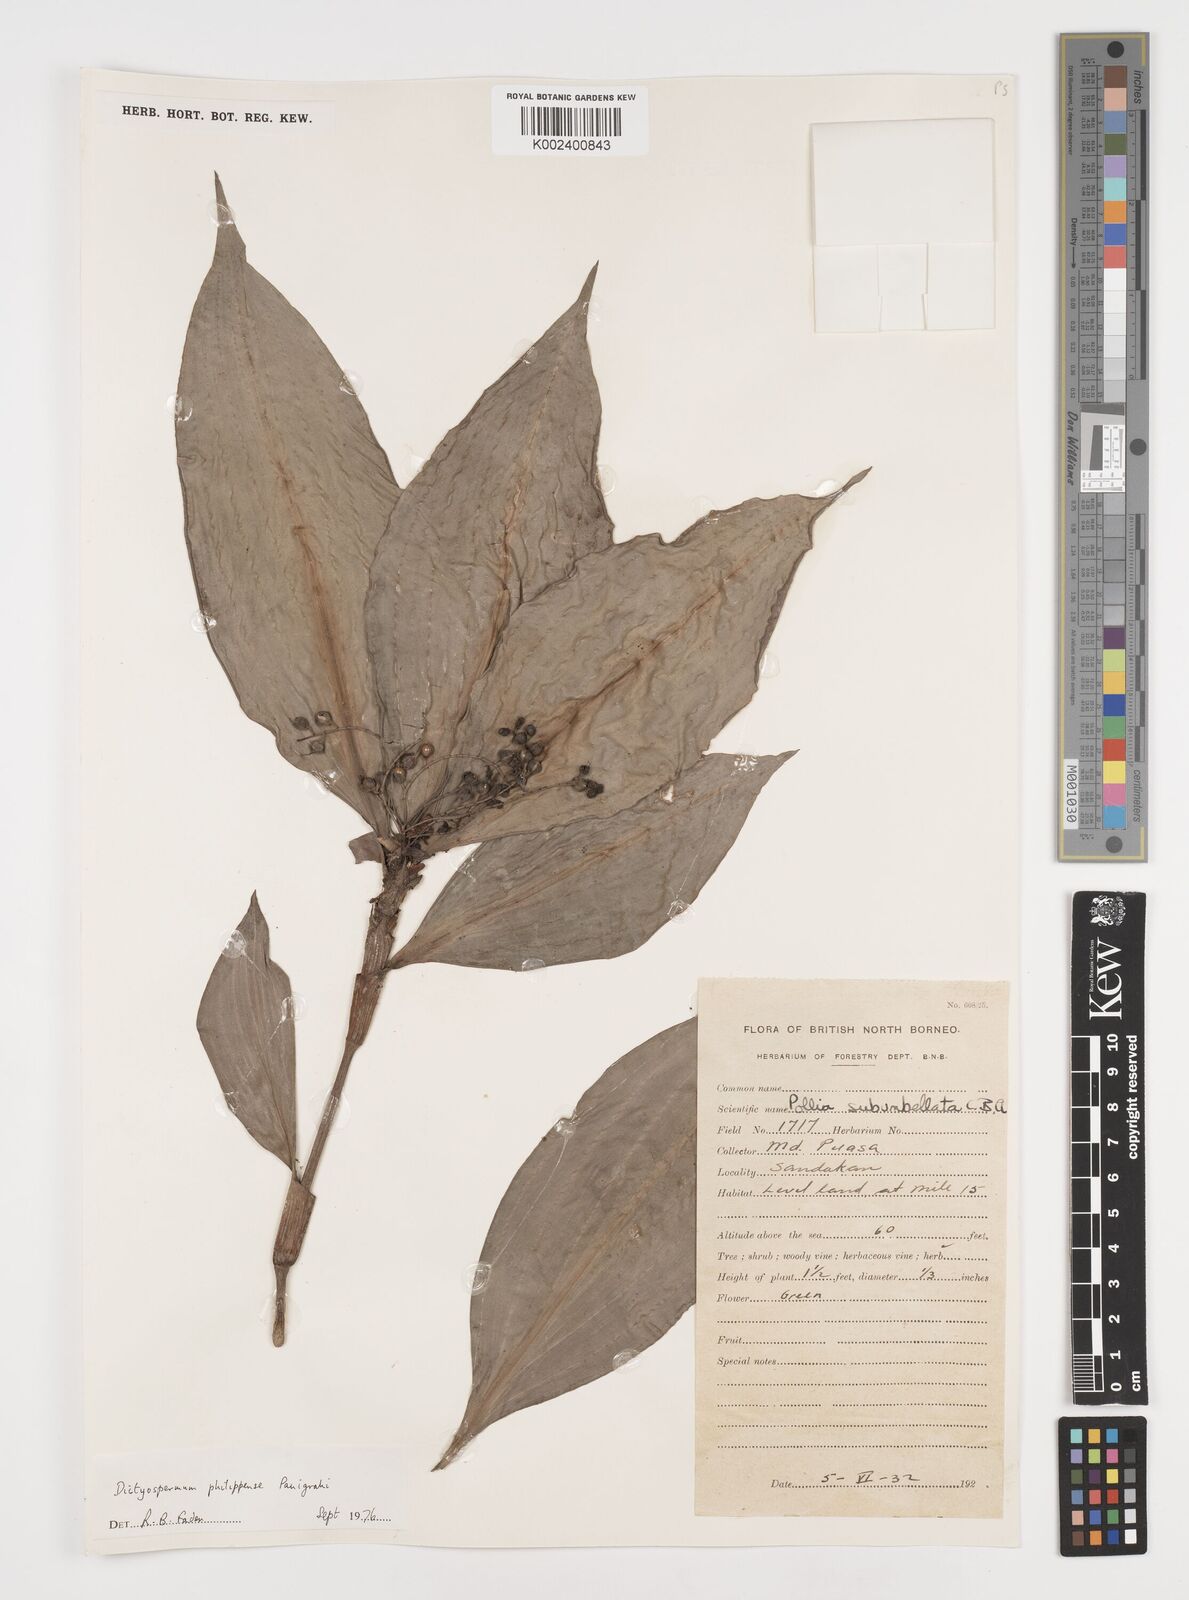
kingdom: Plantae
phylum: Tracheophyta
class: Liliopsida
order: Commelinales
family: Commelinaceae
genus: Tricarpelema
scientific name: Tricarpelema philippense
